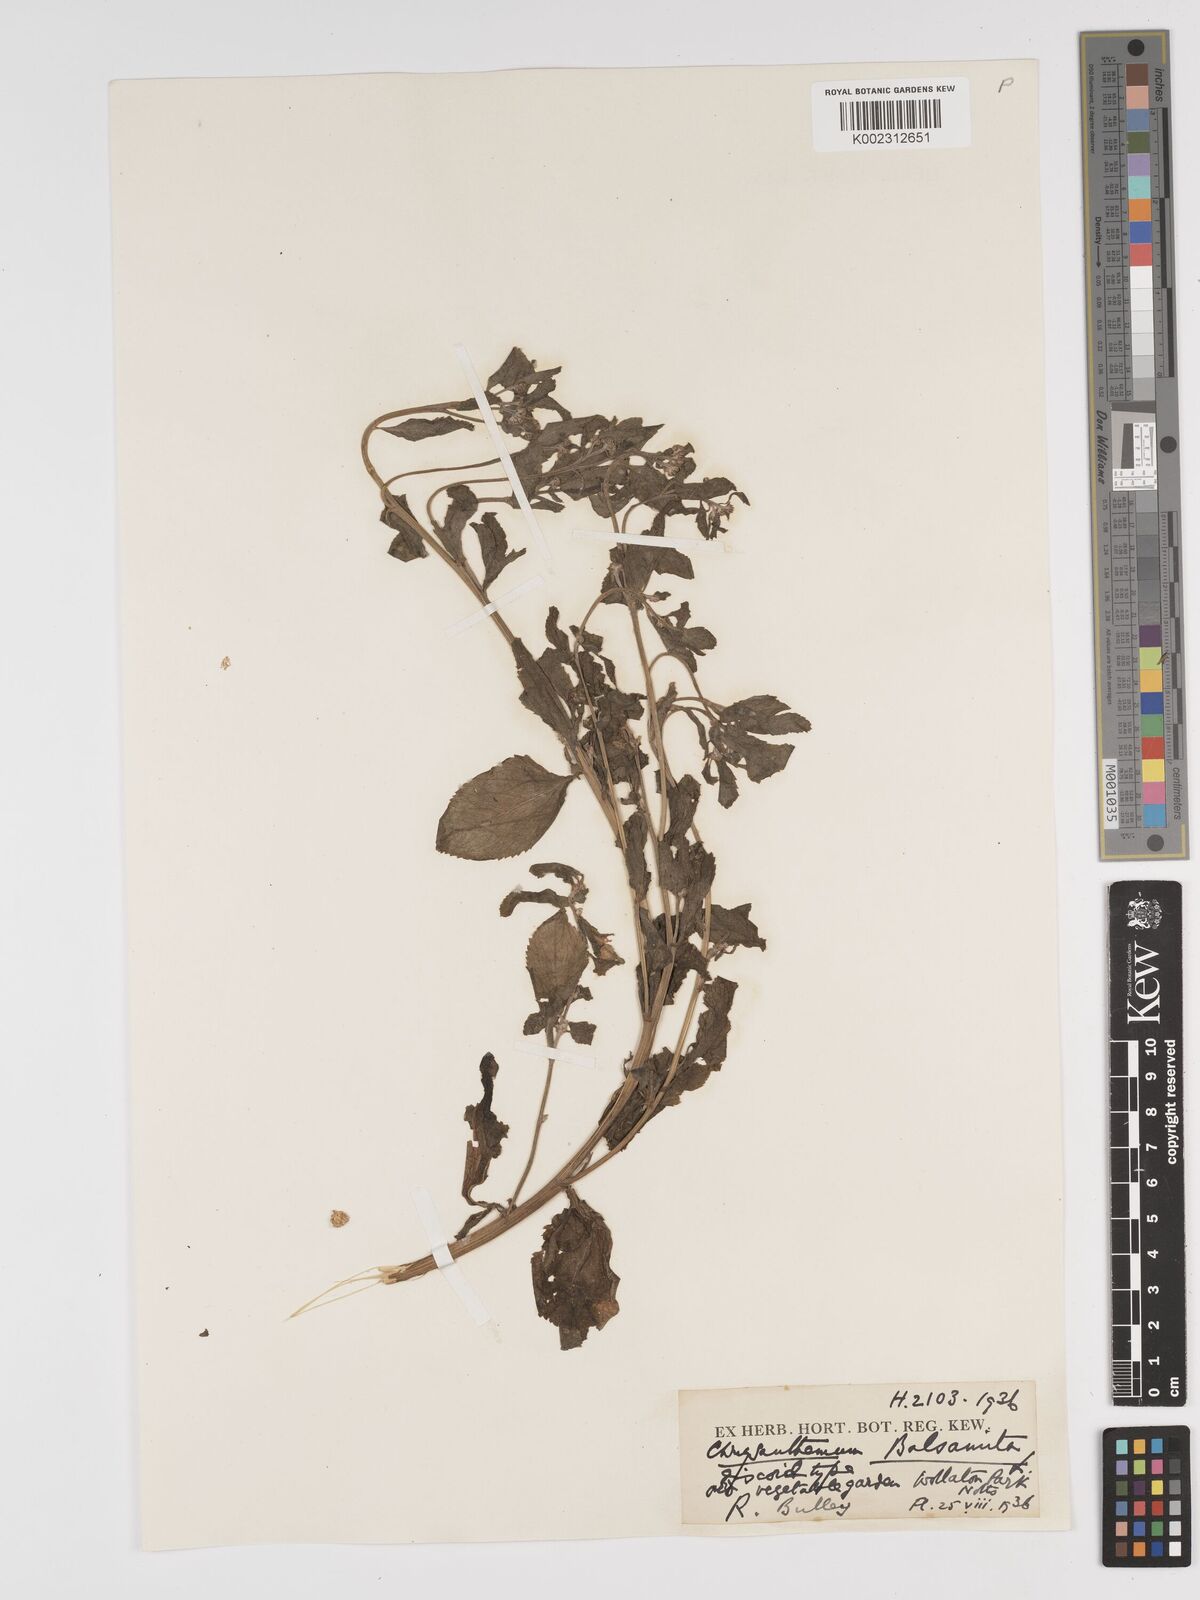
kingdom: Plantae
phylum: Tracheophyta
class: Magnoliopsida
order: Asterales
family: Asteraceae
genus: Tanacetum
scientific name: Tanacetum balsamita
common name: Costmary
